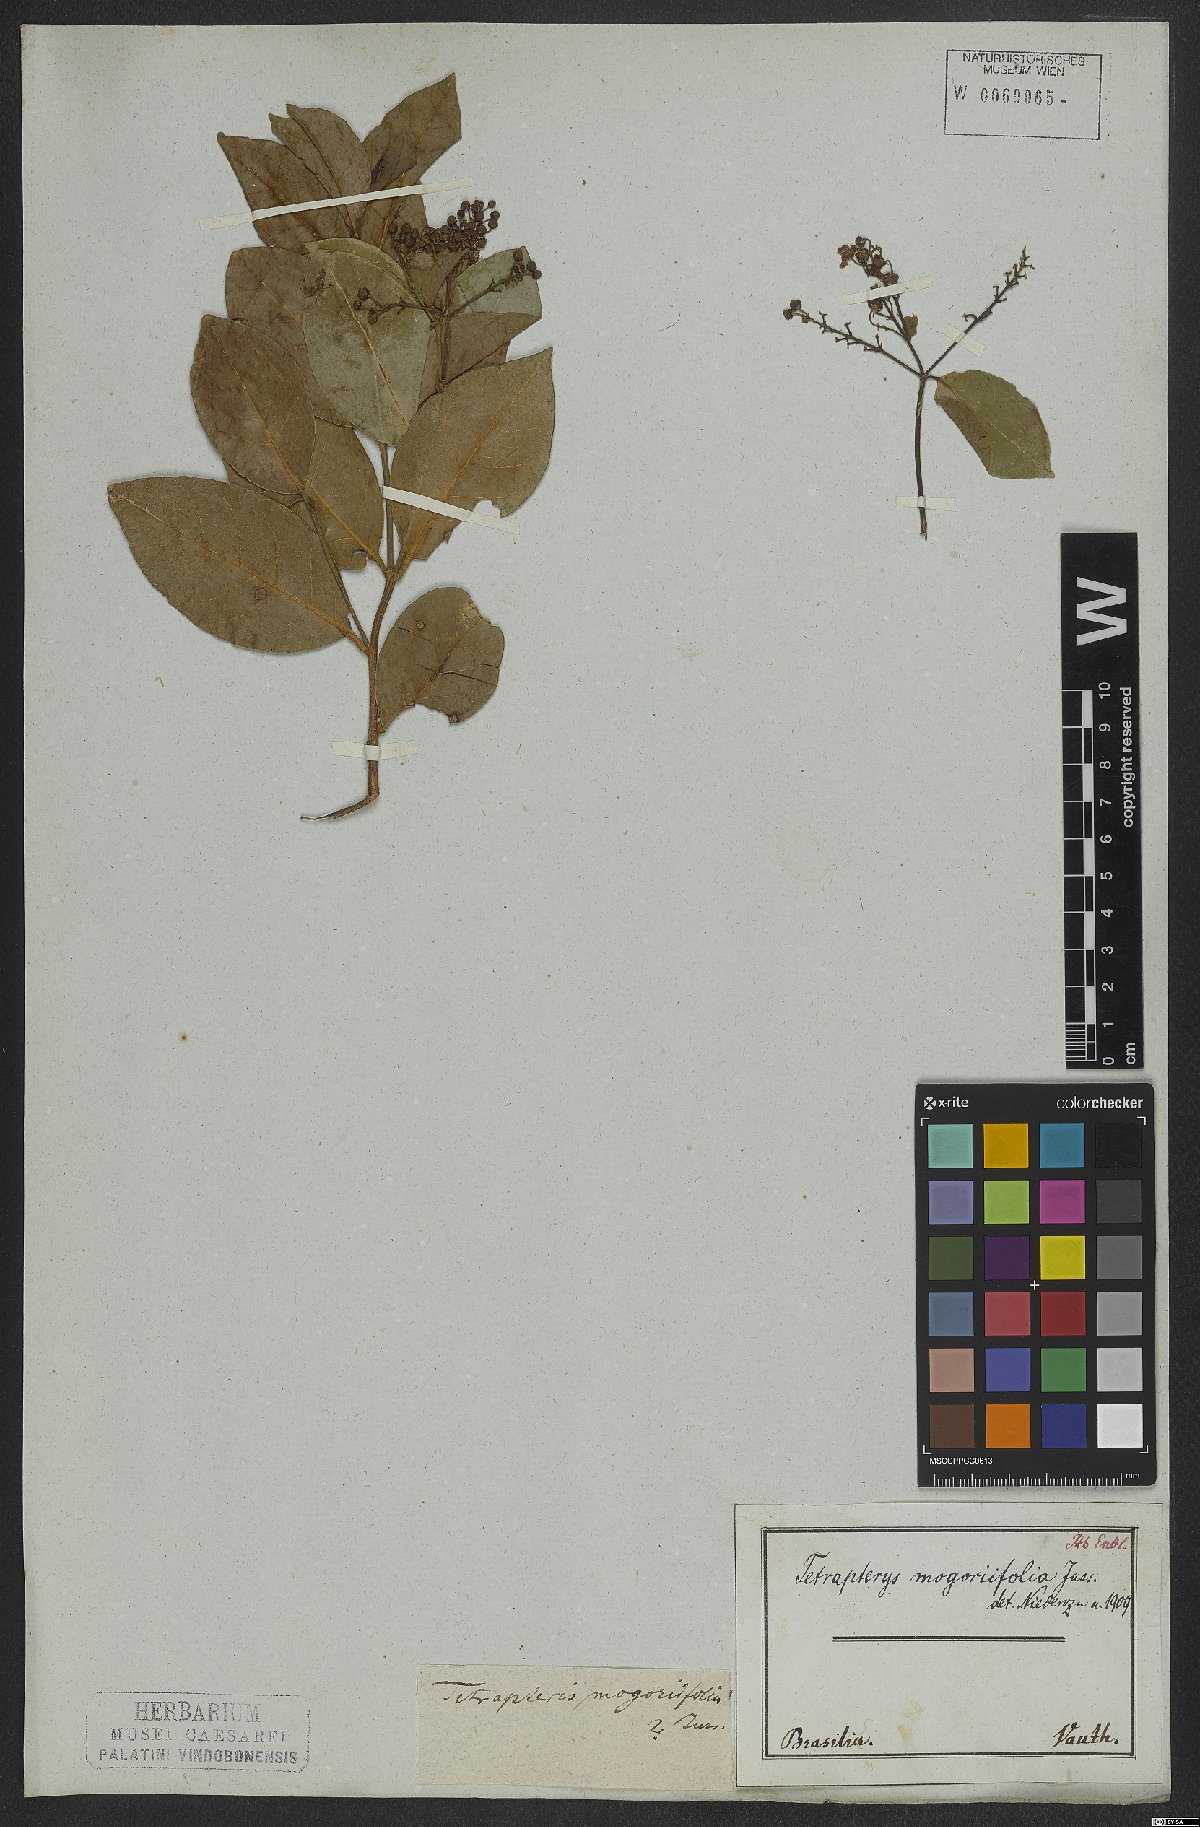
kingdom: Plantae
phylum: Tracheophyta
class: Magnoliopsida
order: Malpighiales
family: Malpighiaceae
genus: Niedenzuella
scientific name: Niedenzuella mogoriifolia
